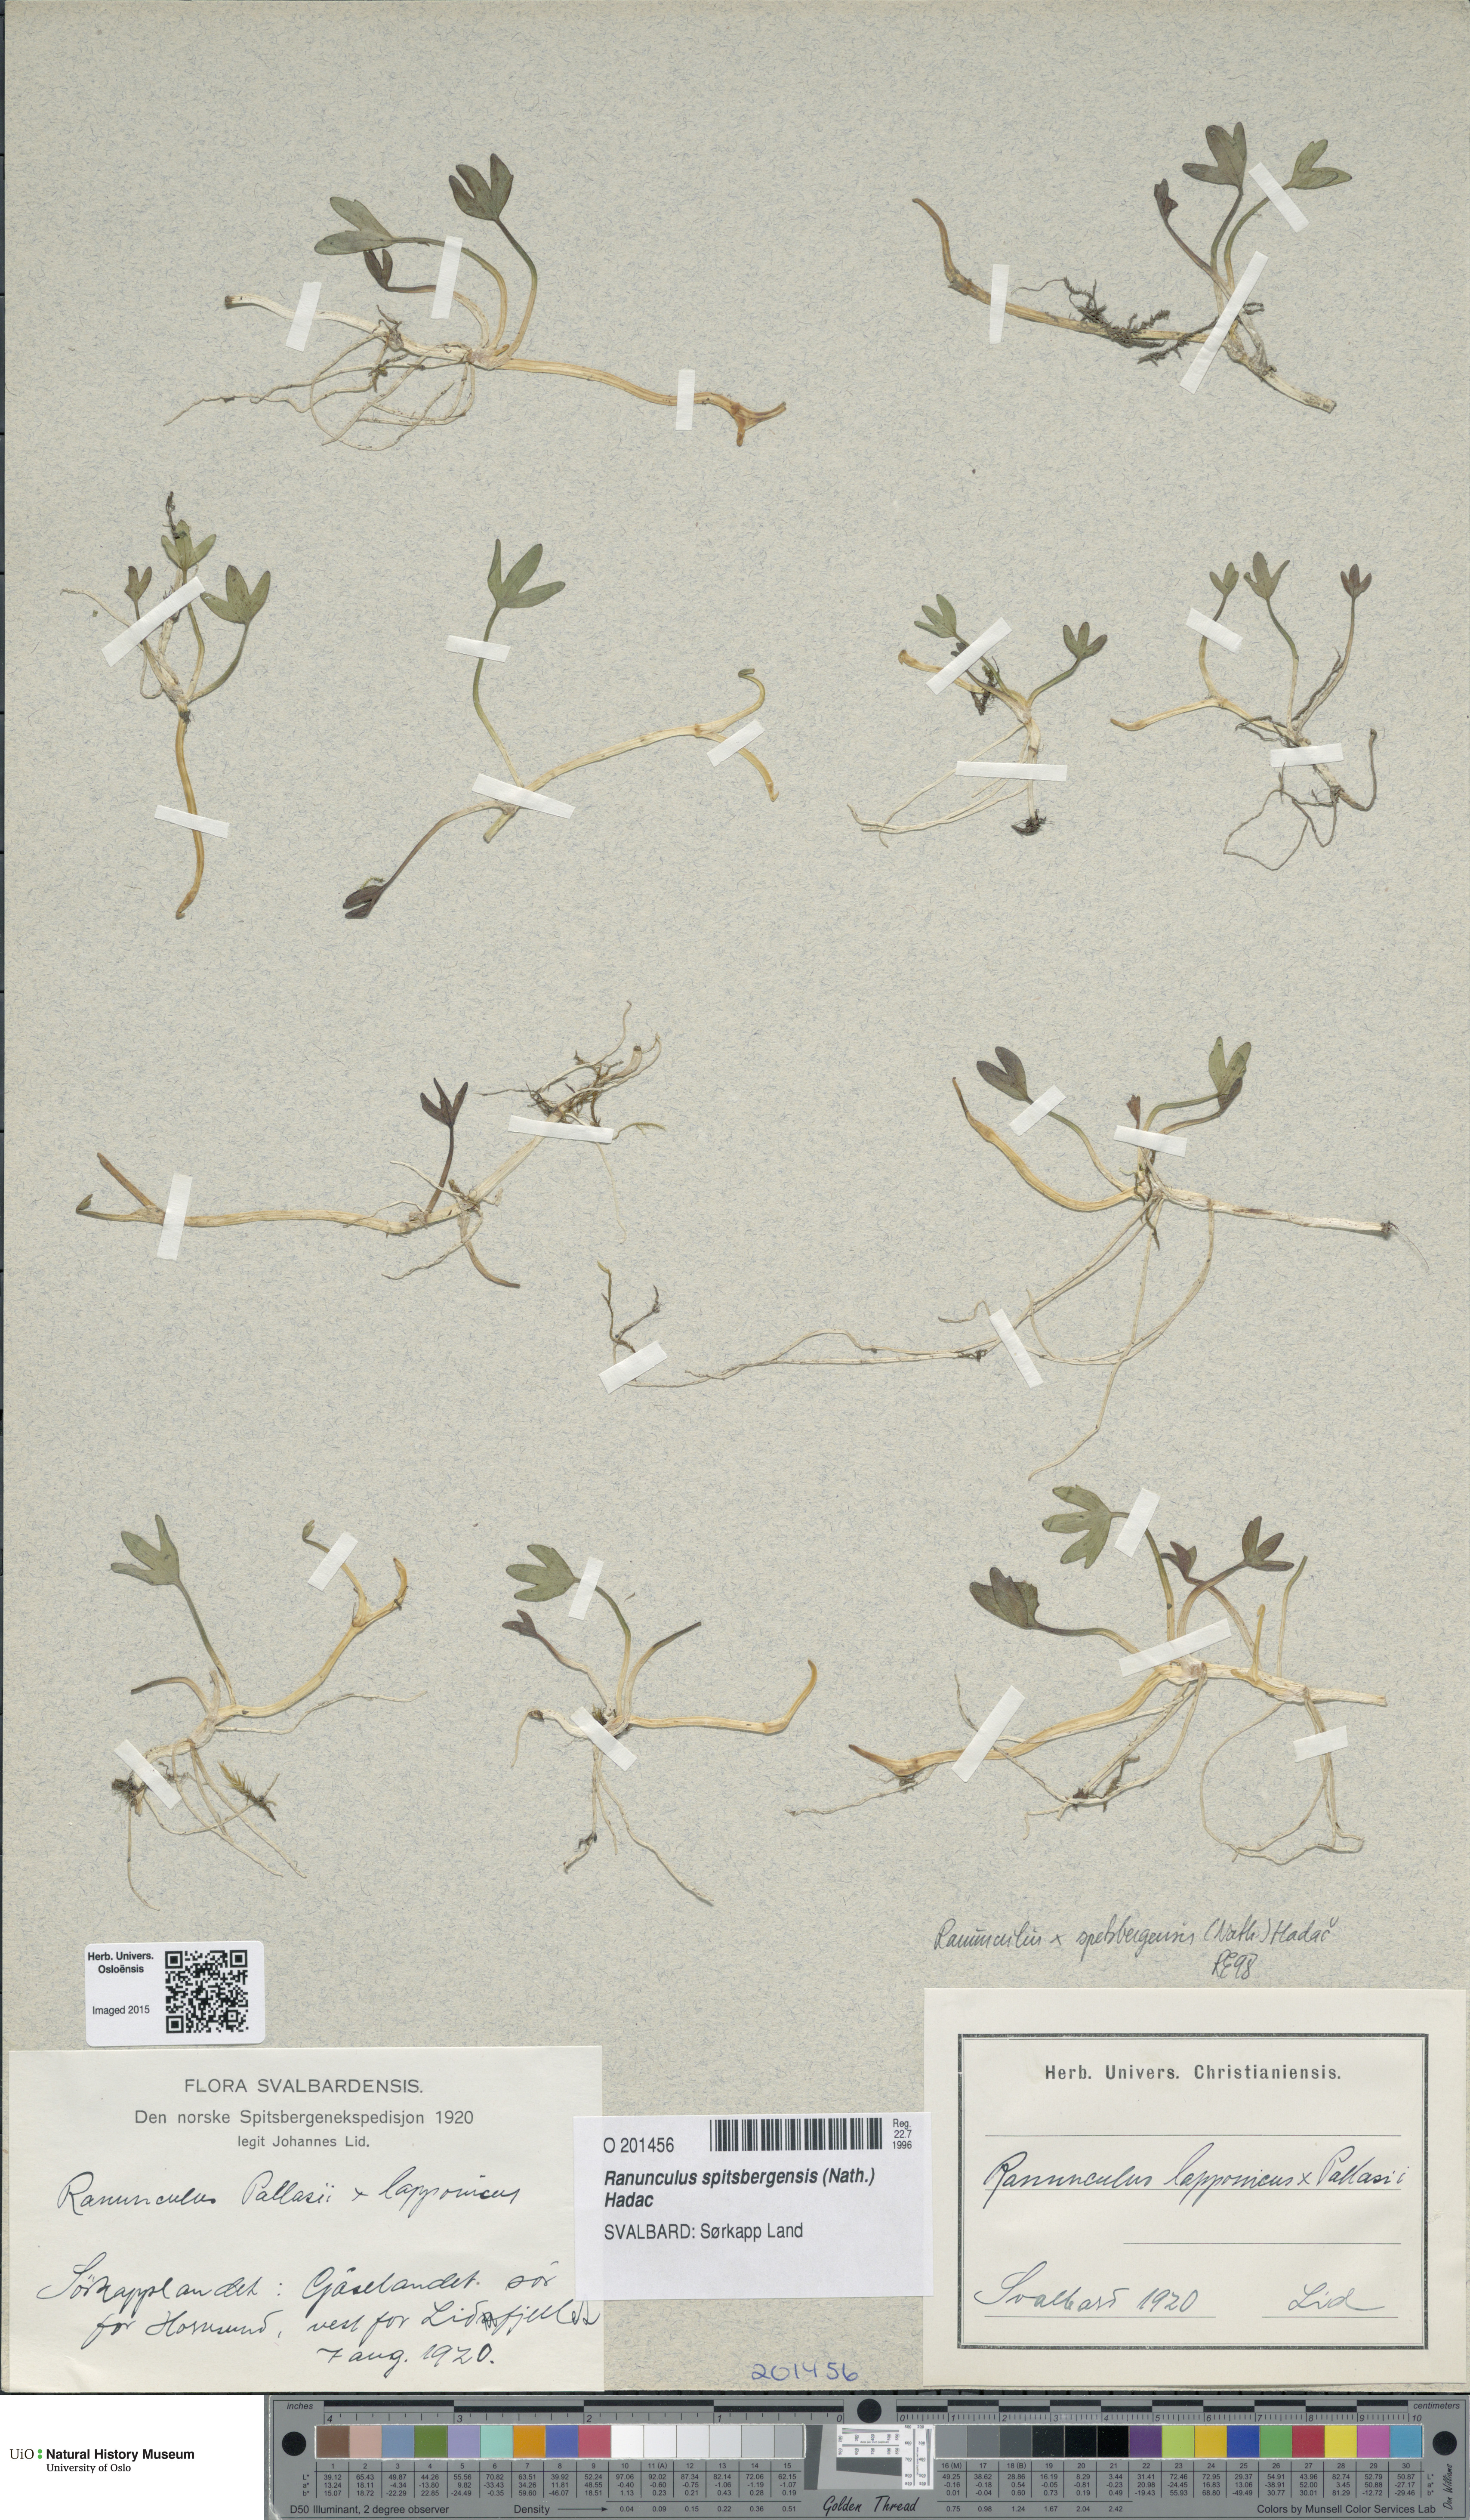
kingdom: Plantae
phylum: Tracheophyta
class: Magnoliopsida
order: Ranunculales
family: Ranunculaceae
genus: Coptidium
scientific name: Coptidium spitsbergense
